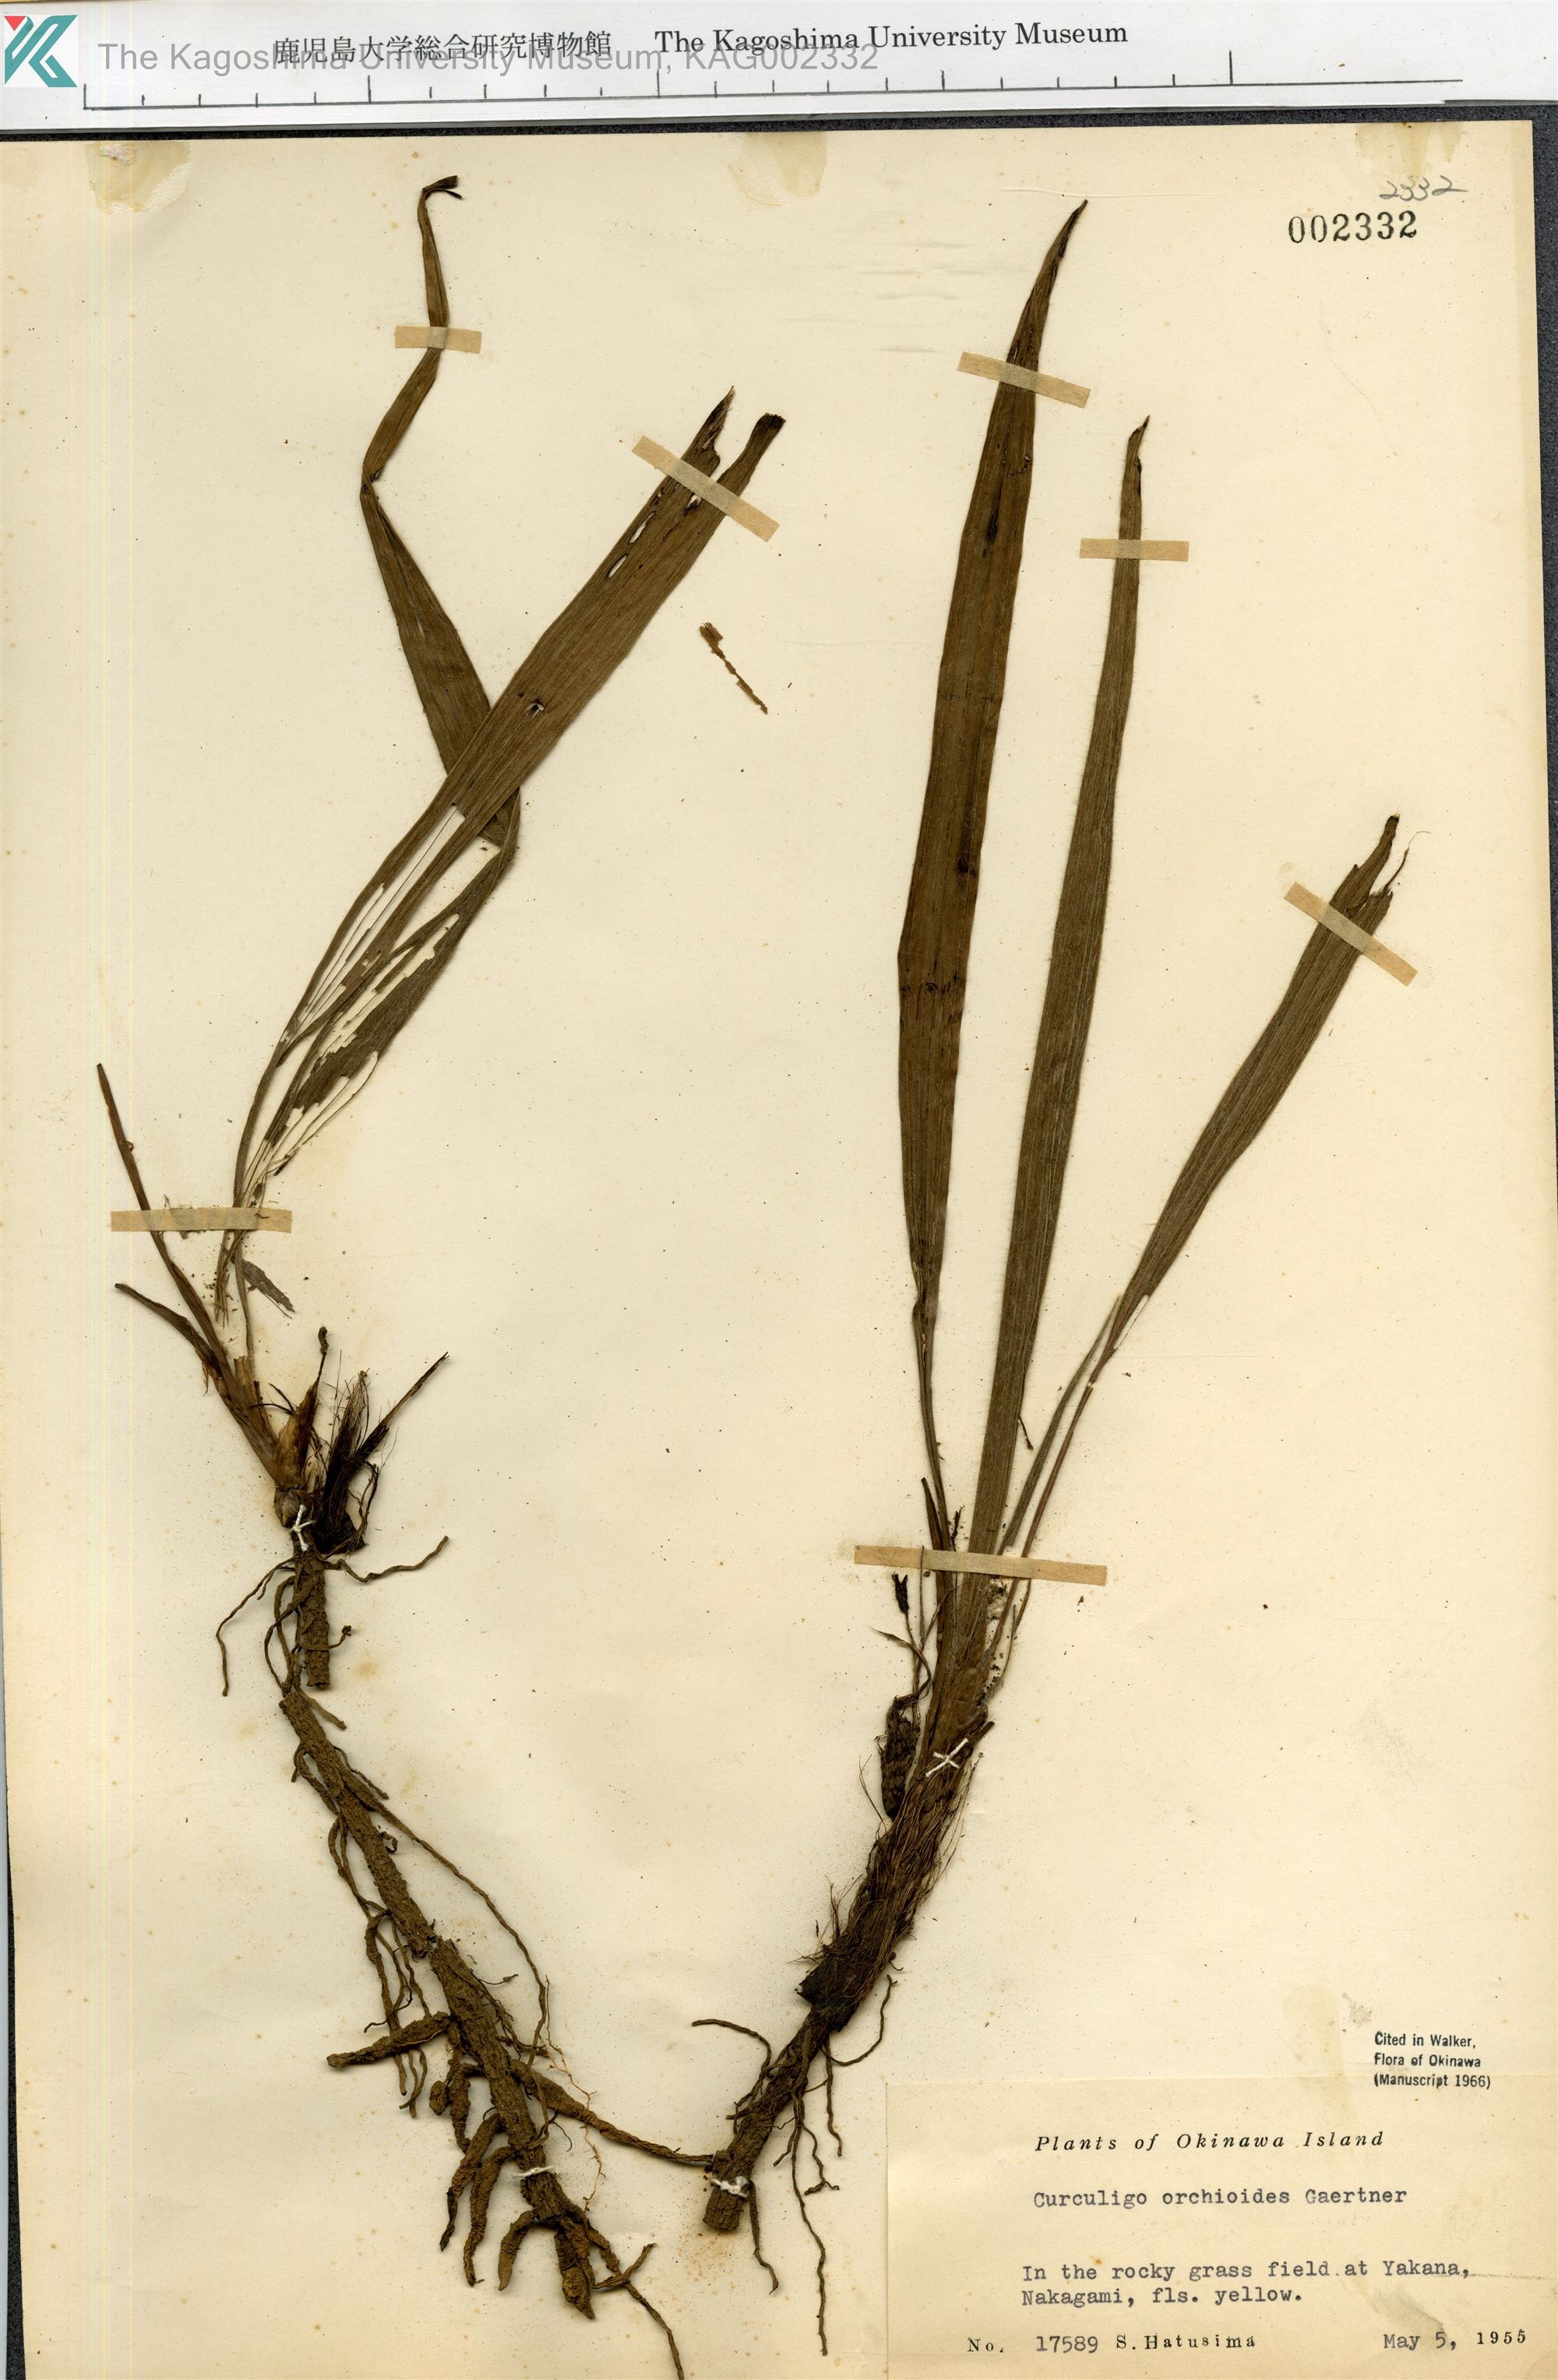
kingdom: Plantae
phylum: Tracheophyta
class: Liliopsida
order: Asparagales
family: Hypoxidaceae
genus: Curculigo
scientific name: Curculigo orchioides
